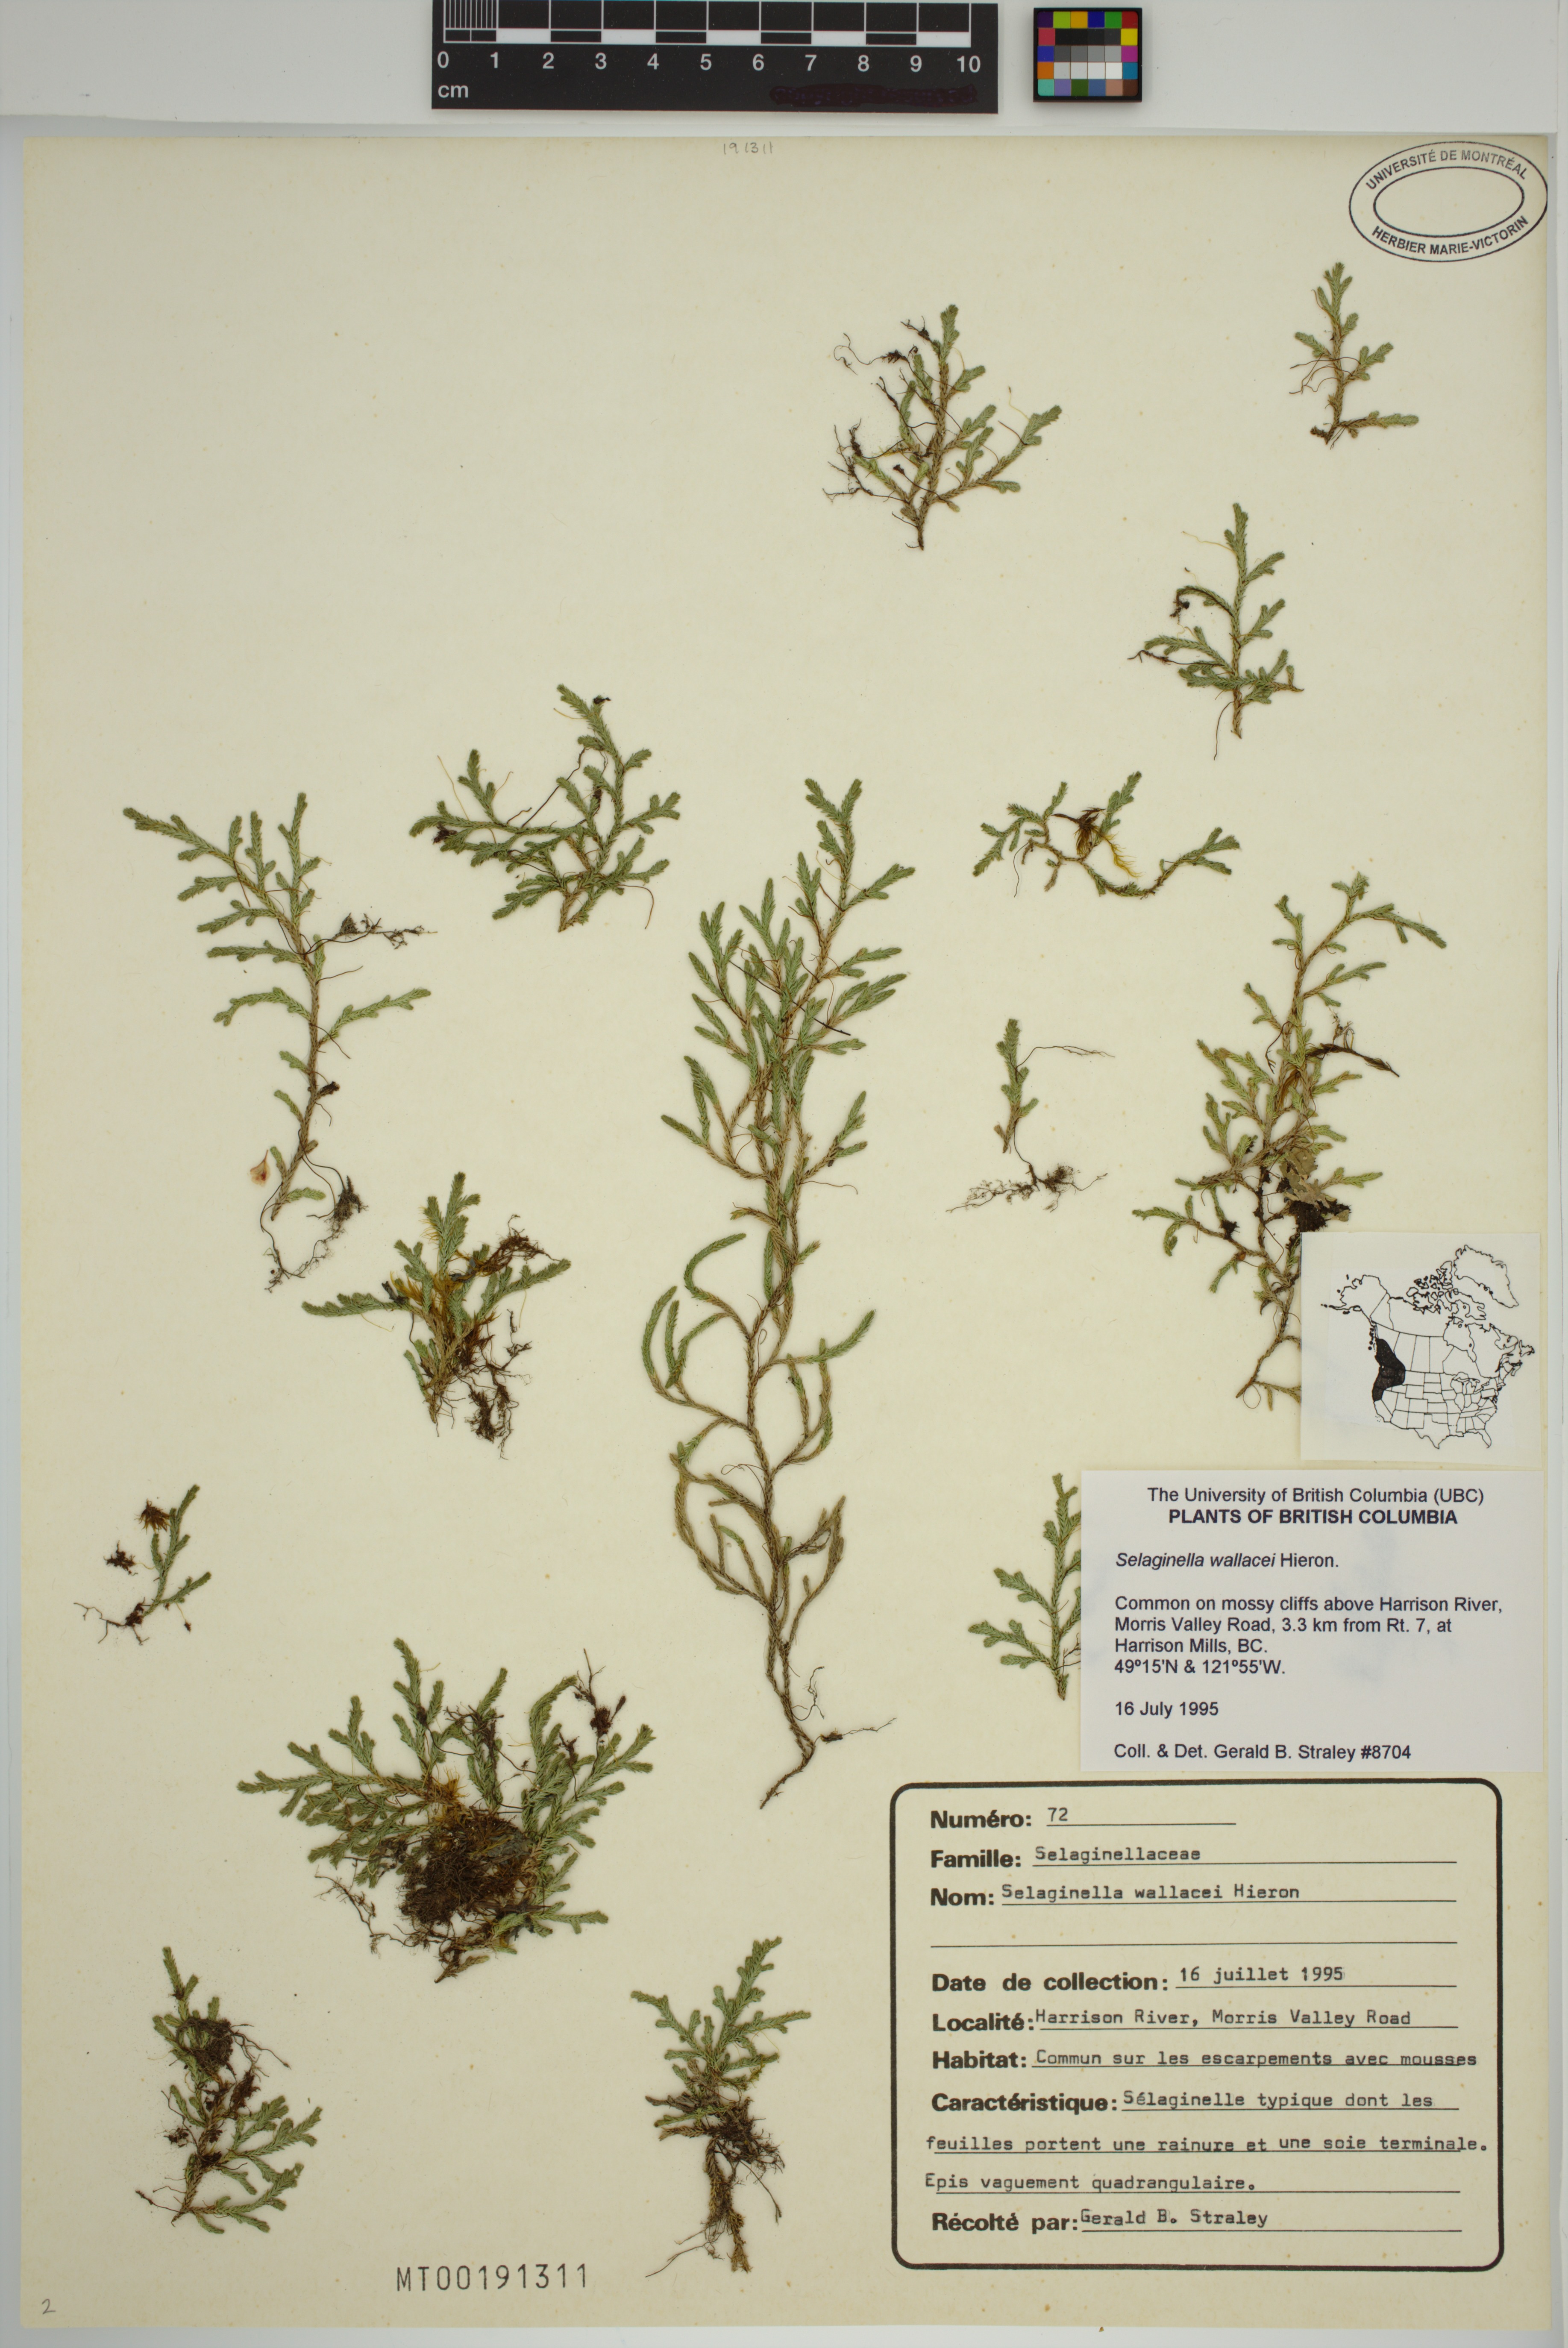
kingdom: Plantae
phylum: Tracheophyta
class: Lycopodiopsida
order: Selaginellales
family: Selaginellaceae
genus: Selaginella
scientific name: Selaginella wallacei
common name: Wallace's selaginella
